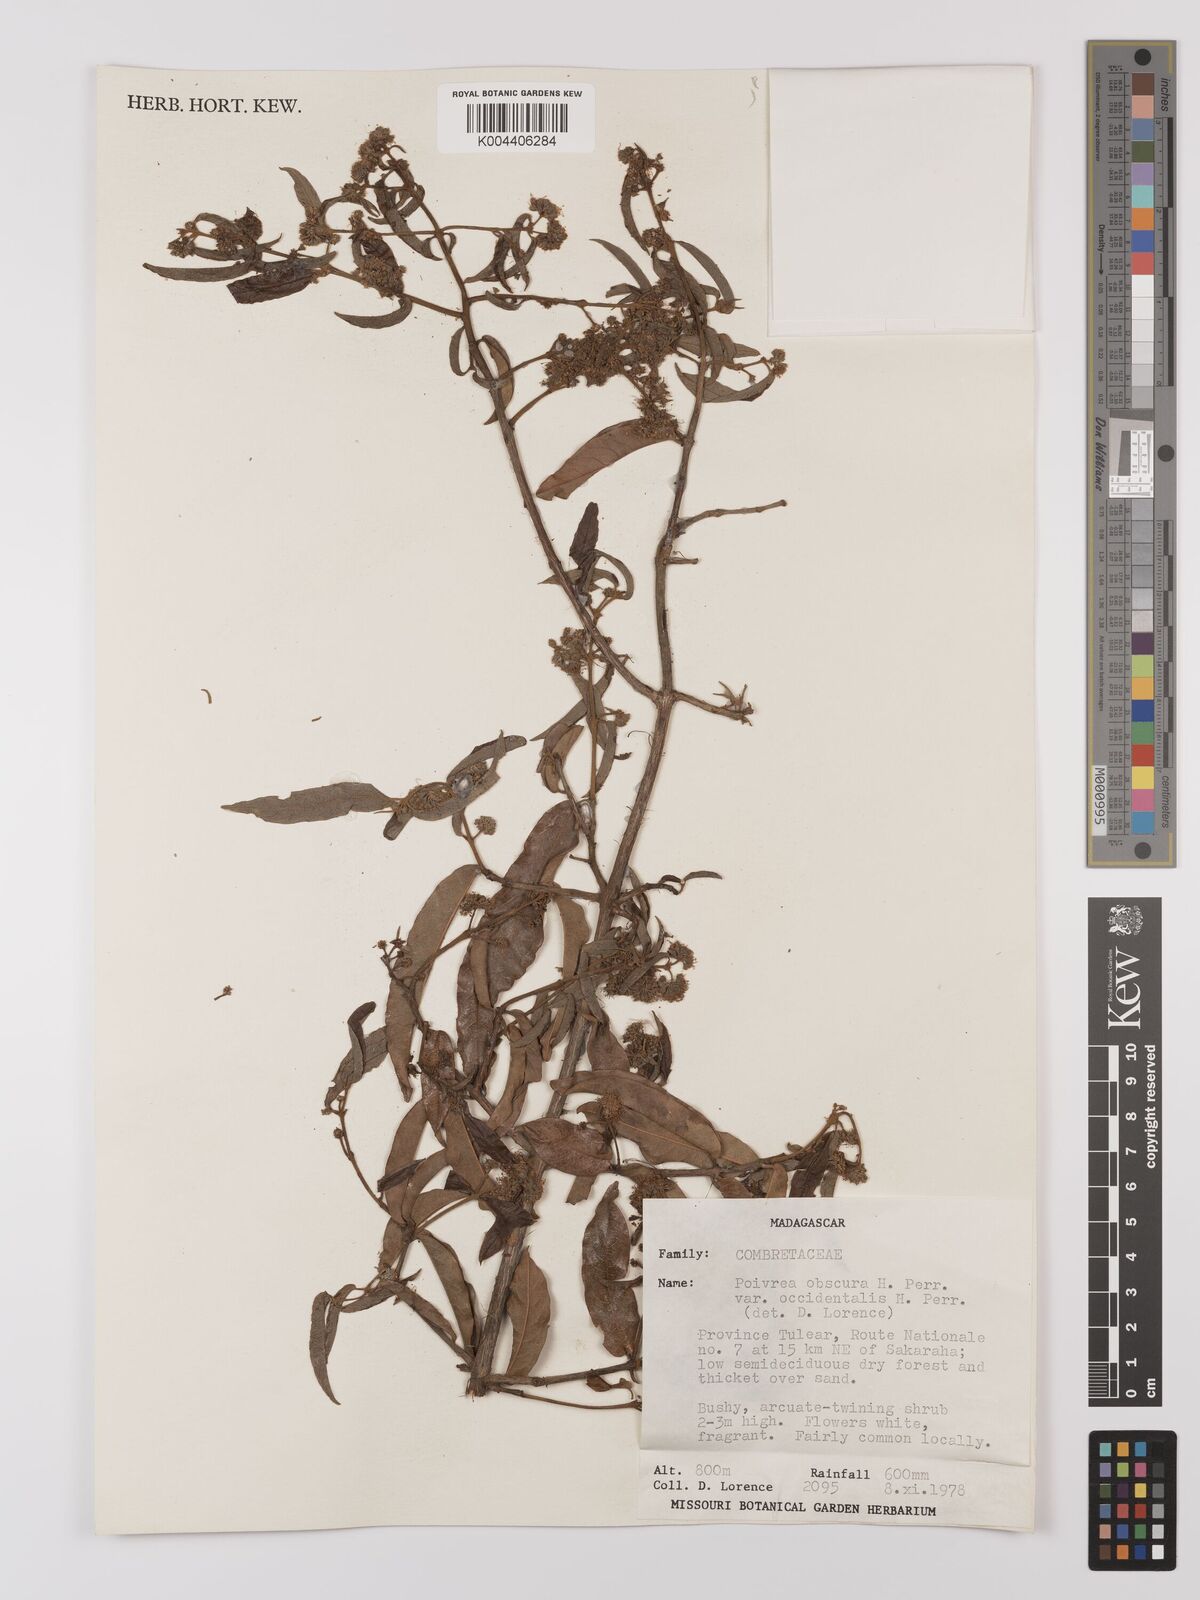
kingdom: Plantae
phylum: Tracheophyta
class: Magnoliopsida
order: Myrtales
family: Combretaceae
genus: Combretum
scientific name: Combretum obscurum
